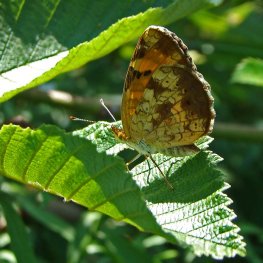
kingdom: Animalia
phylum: Arthropoda
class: Insecta
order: Lepidoptera
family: Nymphalidae
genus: Phyciodes
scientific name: Phyciodes tharos
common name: Northern Crescent
